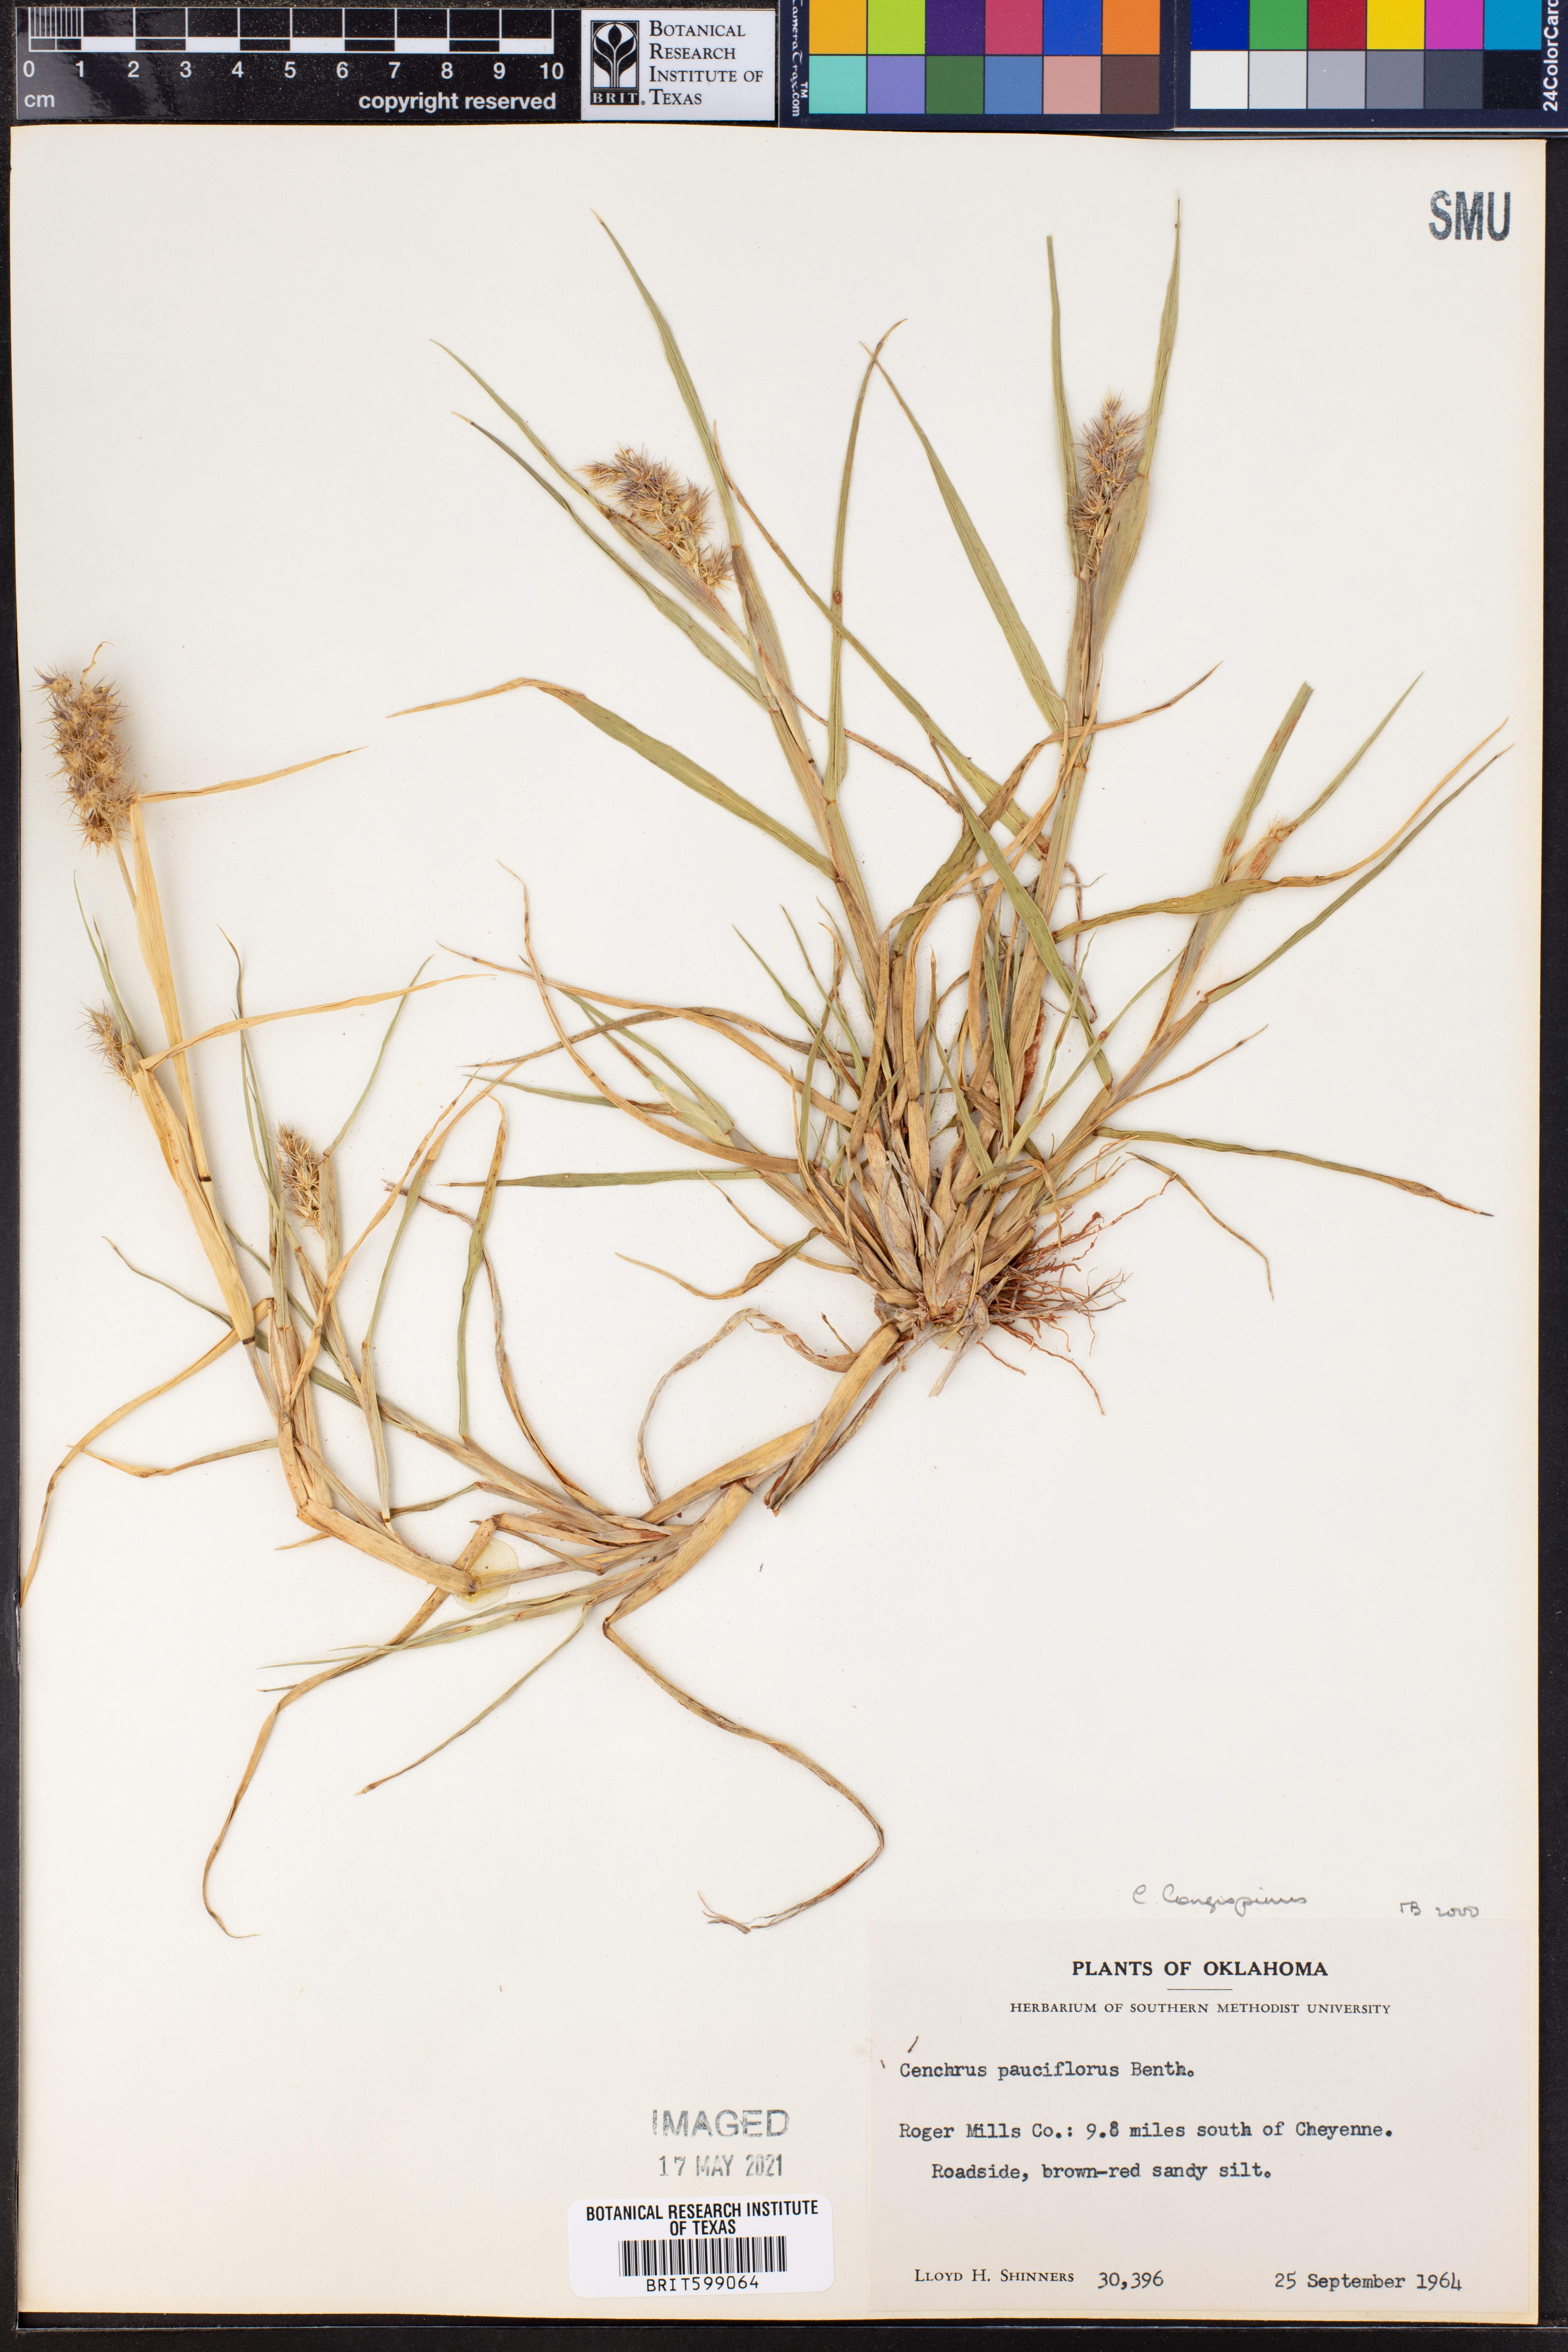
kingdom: Plantae
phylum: Tracheophyta
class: Liliopsida
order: Poales
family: Poaceae
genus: Cenchrus
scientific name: Cenchrus longispinus
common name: Mat sandbur
